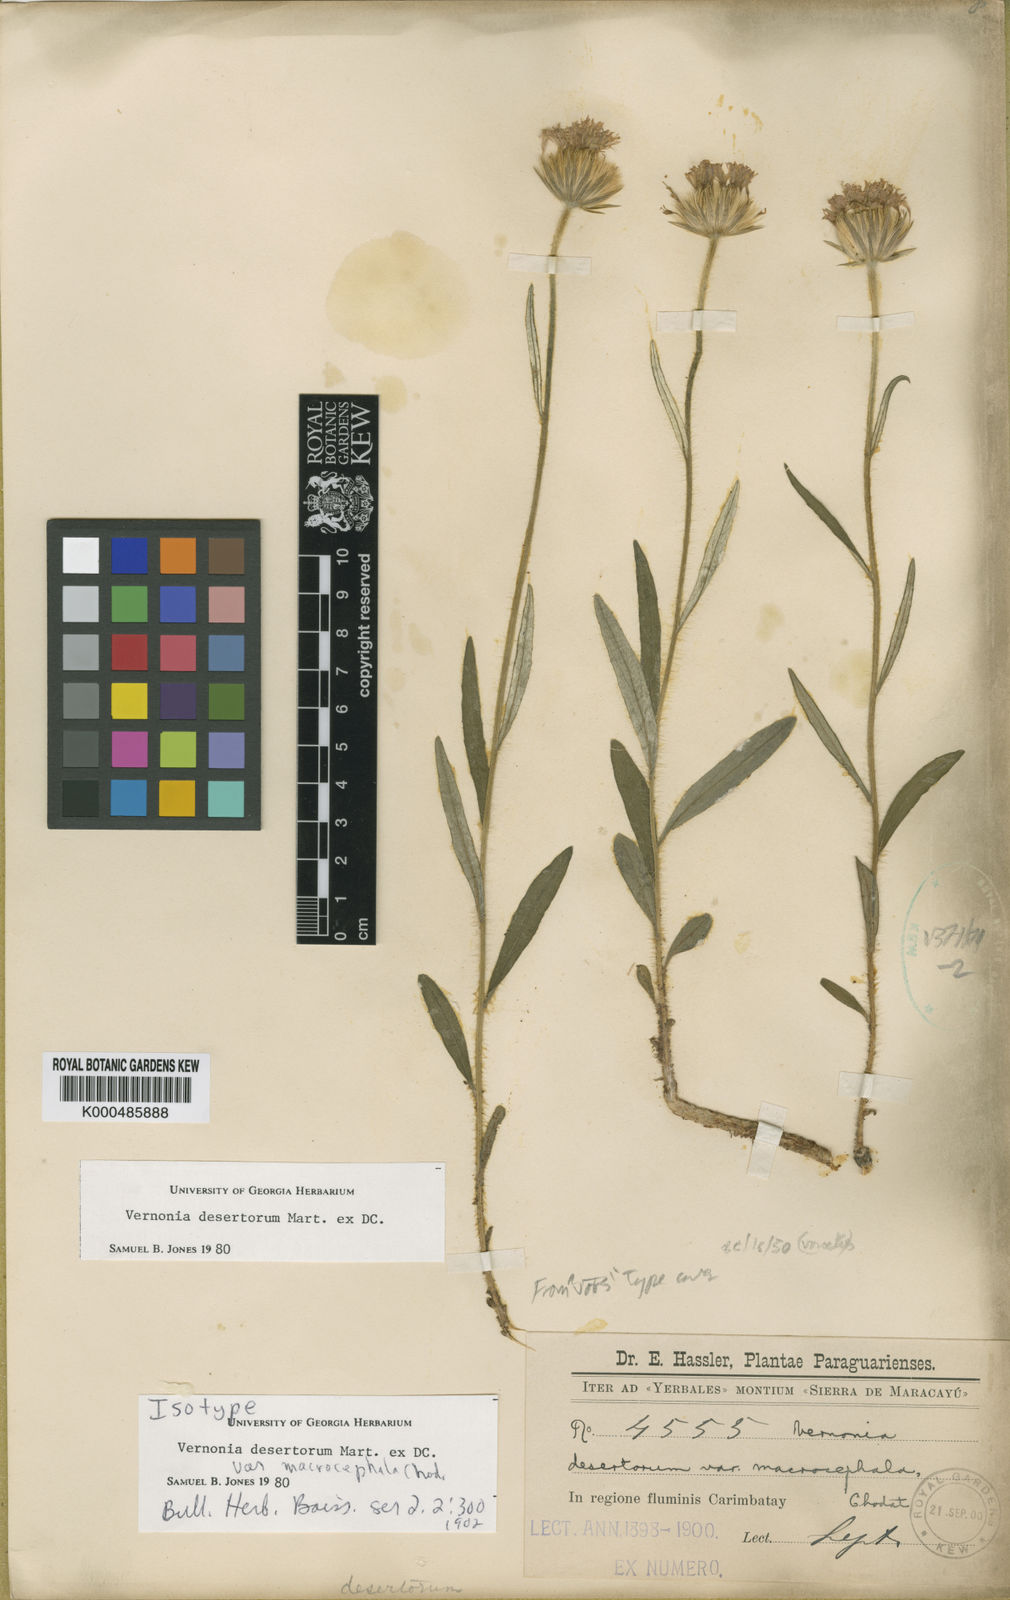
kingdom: Plantae
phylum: Tracheophyta
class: Magnoliopsida
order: Asterales
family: Asteraceae
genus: Chrysolaena
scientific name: Chrysolaena desertorum
